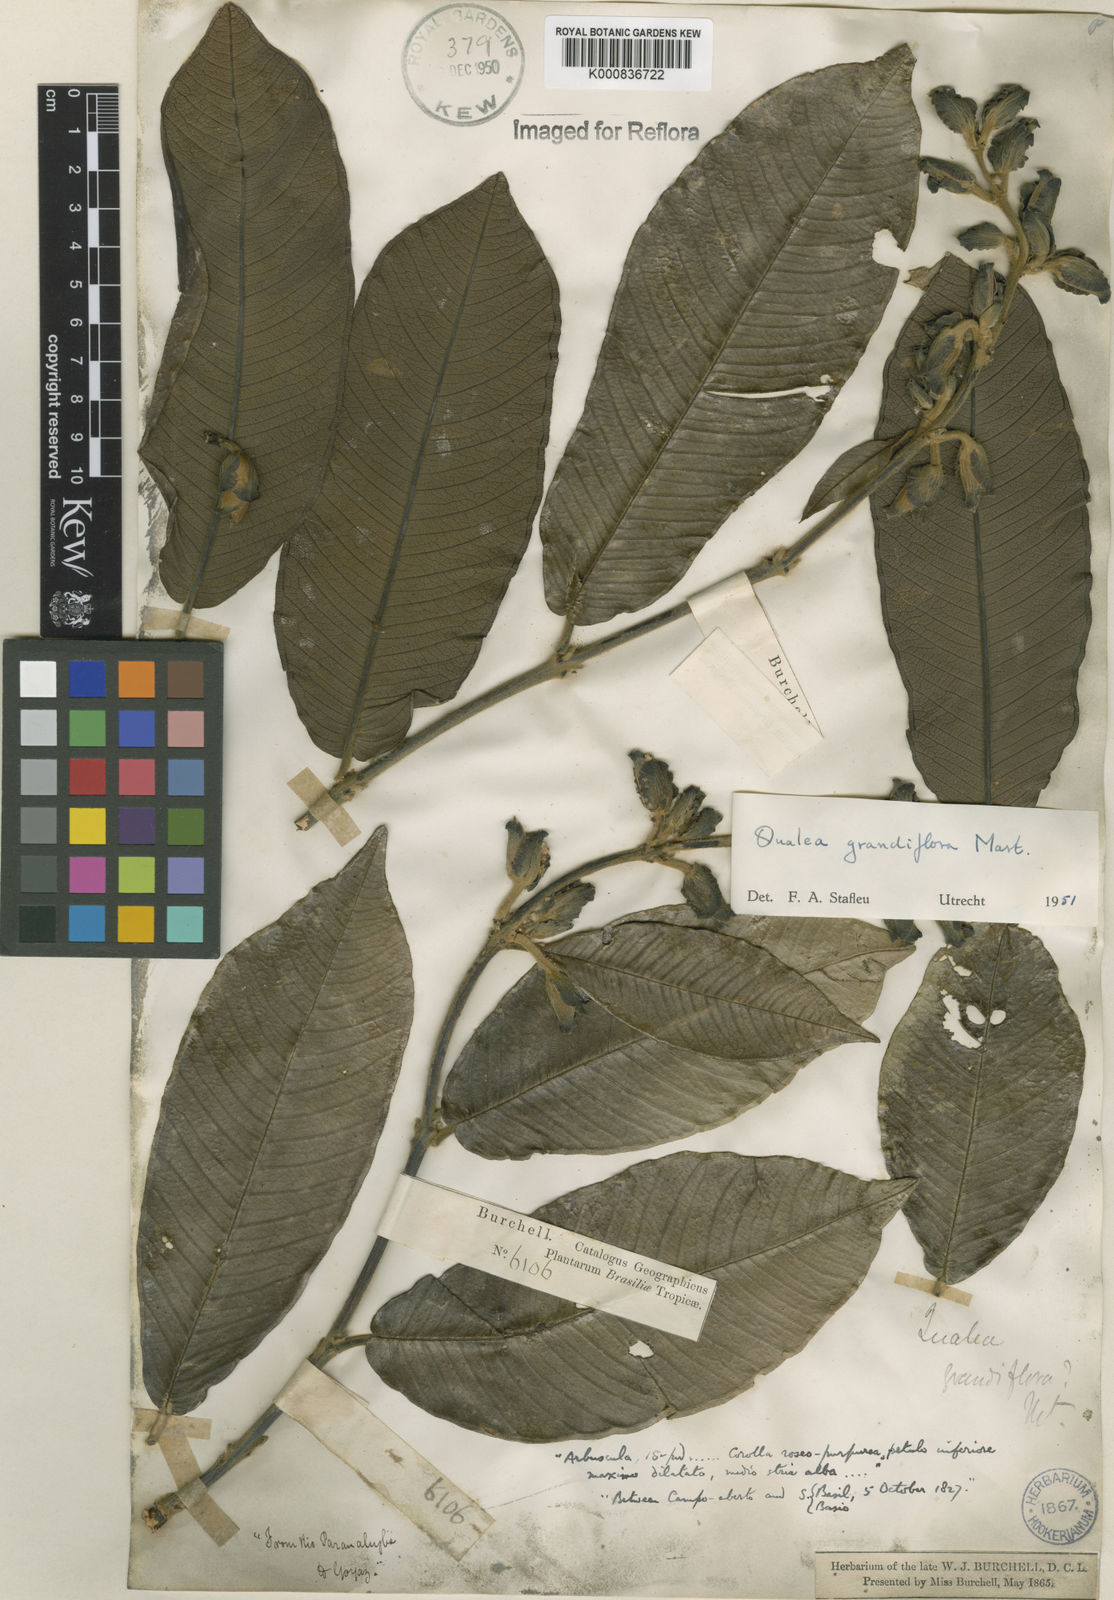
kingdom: Plantae
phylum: Tracheophyta
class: Magnoliopsida
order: Myrtales
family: Vochysiaceae
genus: Qualea
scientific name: Qualea grandiflora
